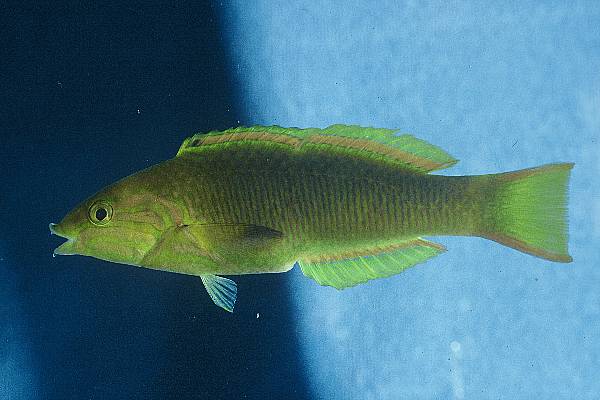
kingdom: Animalia
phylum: Chordata
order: Perciformes
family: Labridae
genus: Thalassoma
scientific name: Thalassoma lunare
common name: Blue wrasse
